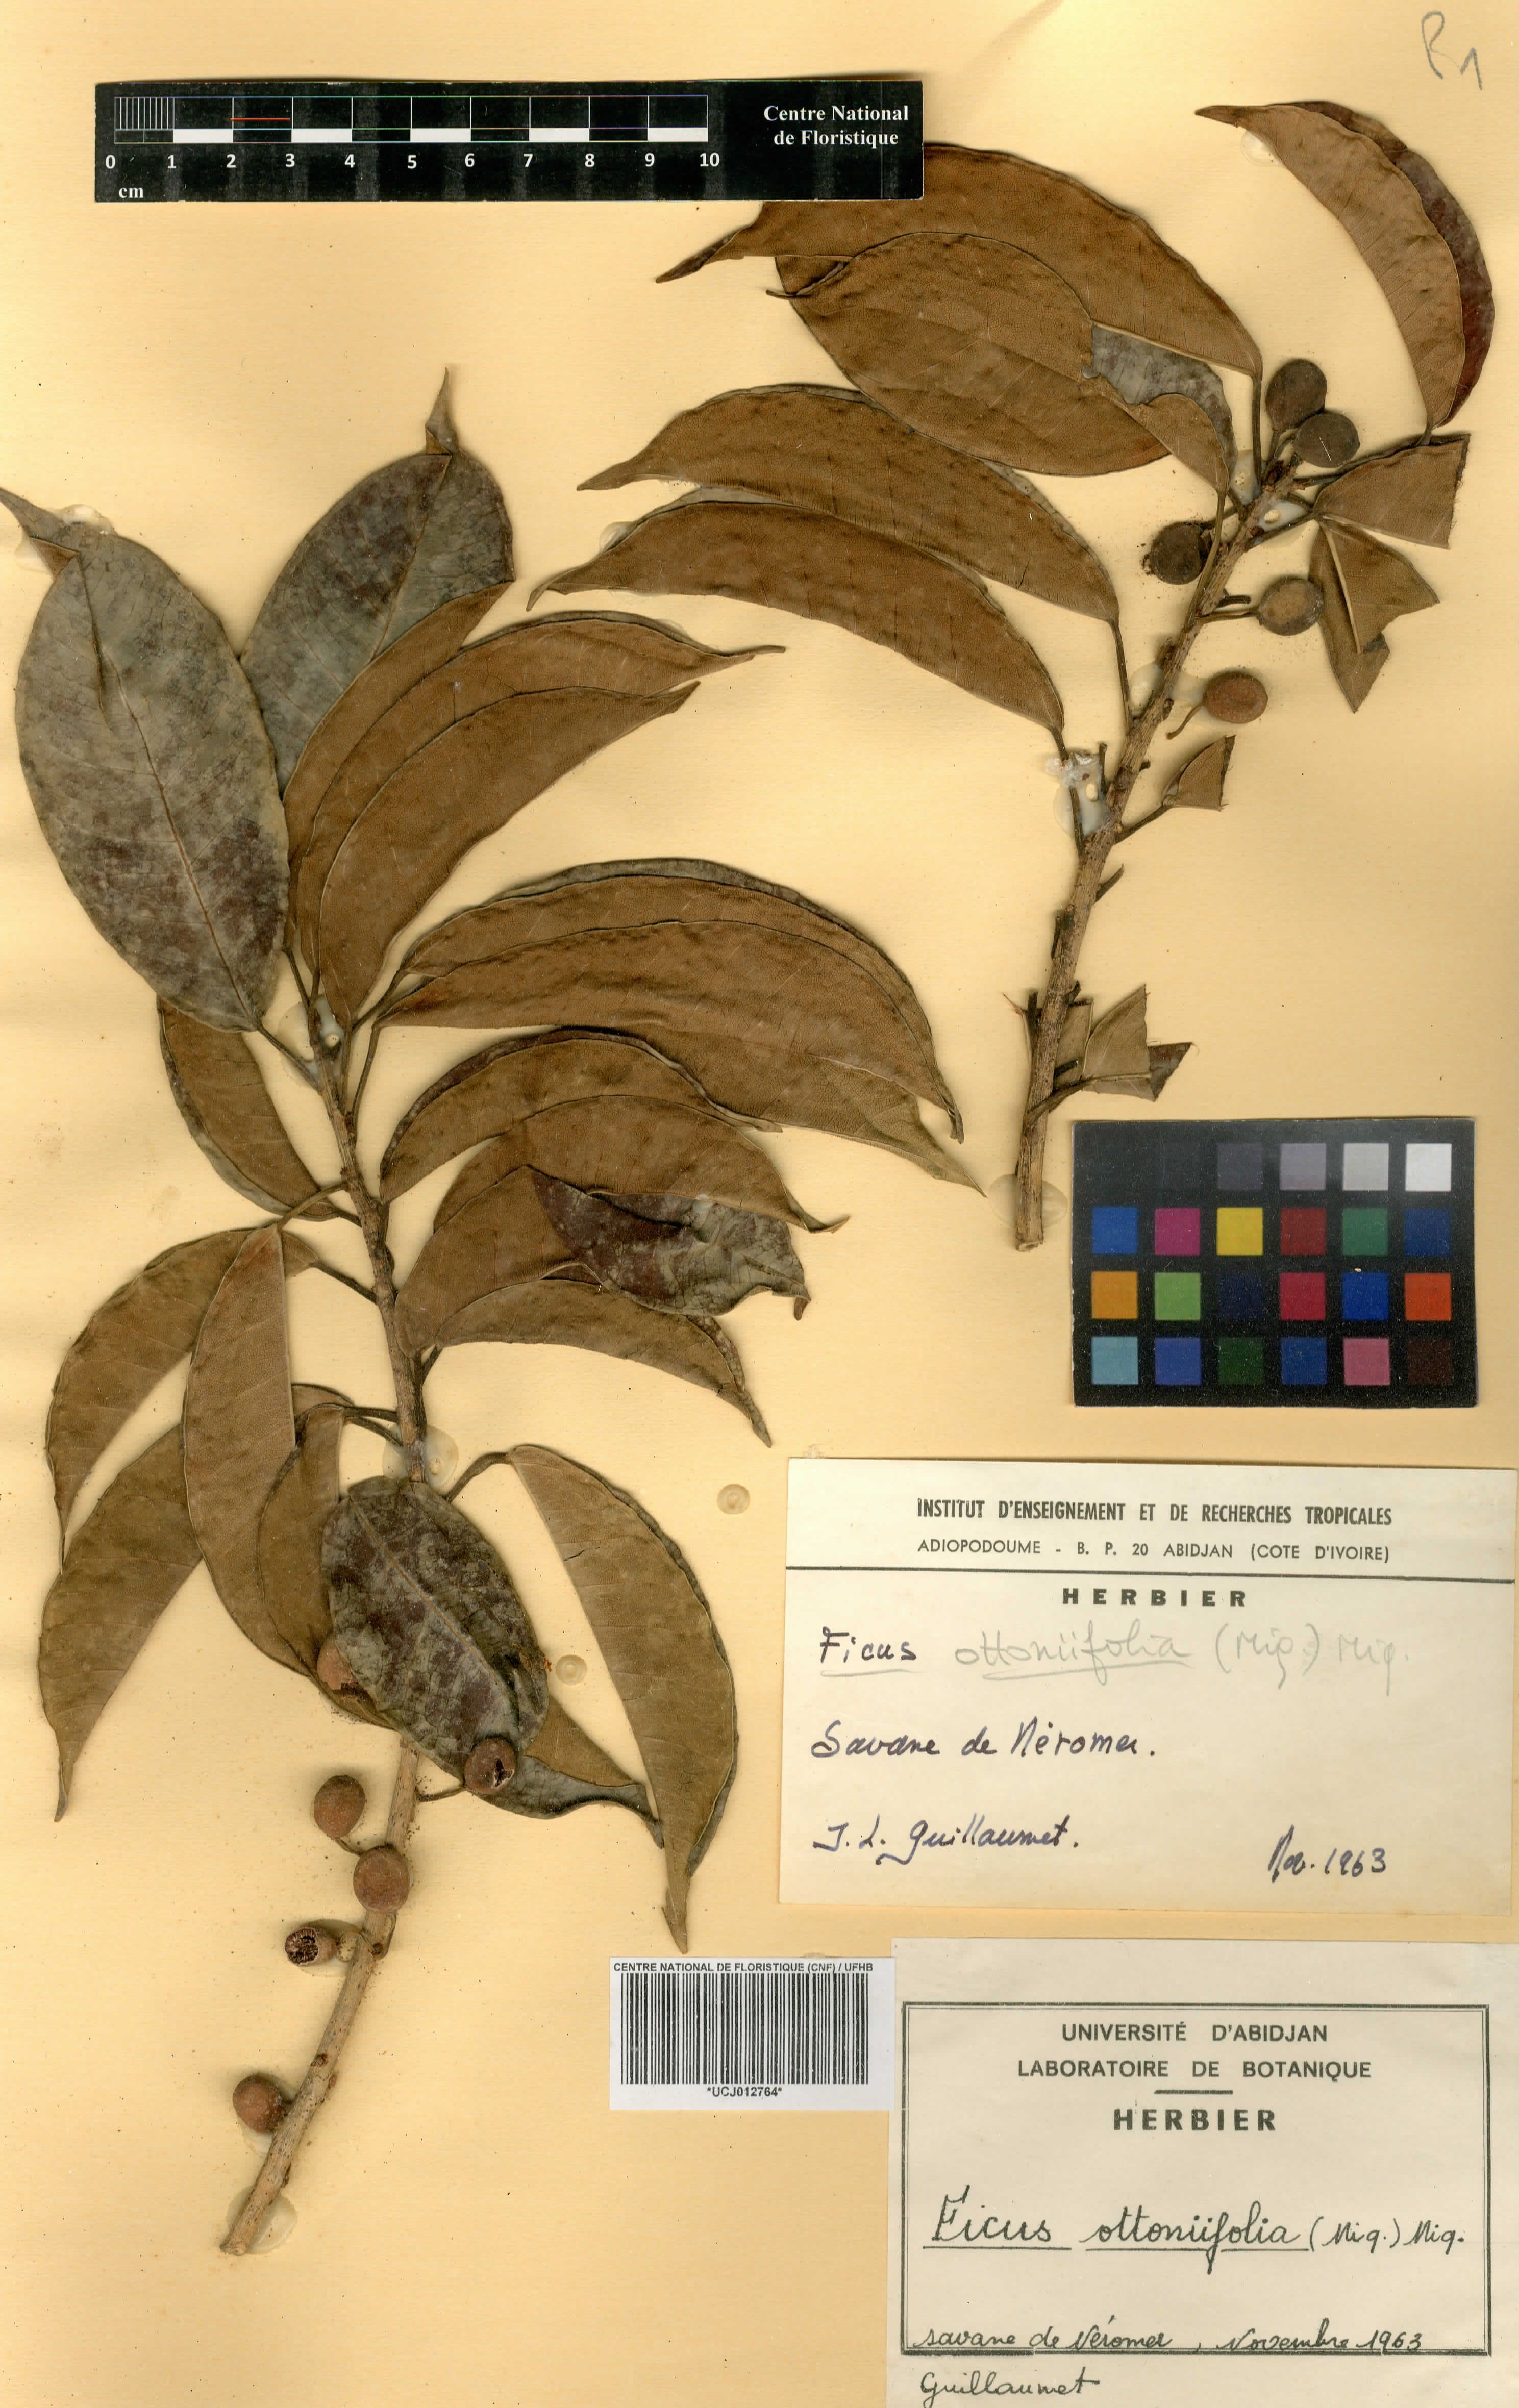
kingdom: Plantae
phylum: Tracheophyta
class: Magnoliopsida
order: Rosales
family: Moraceae
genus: Ficus
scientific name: Ficus ottoniifolia
